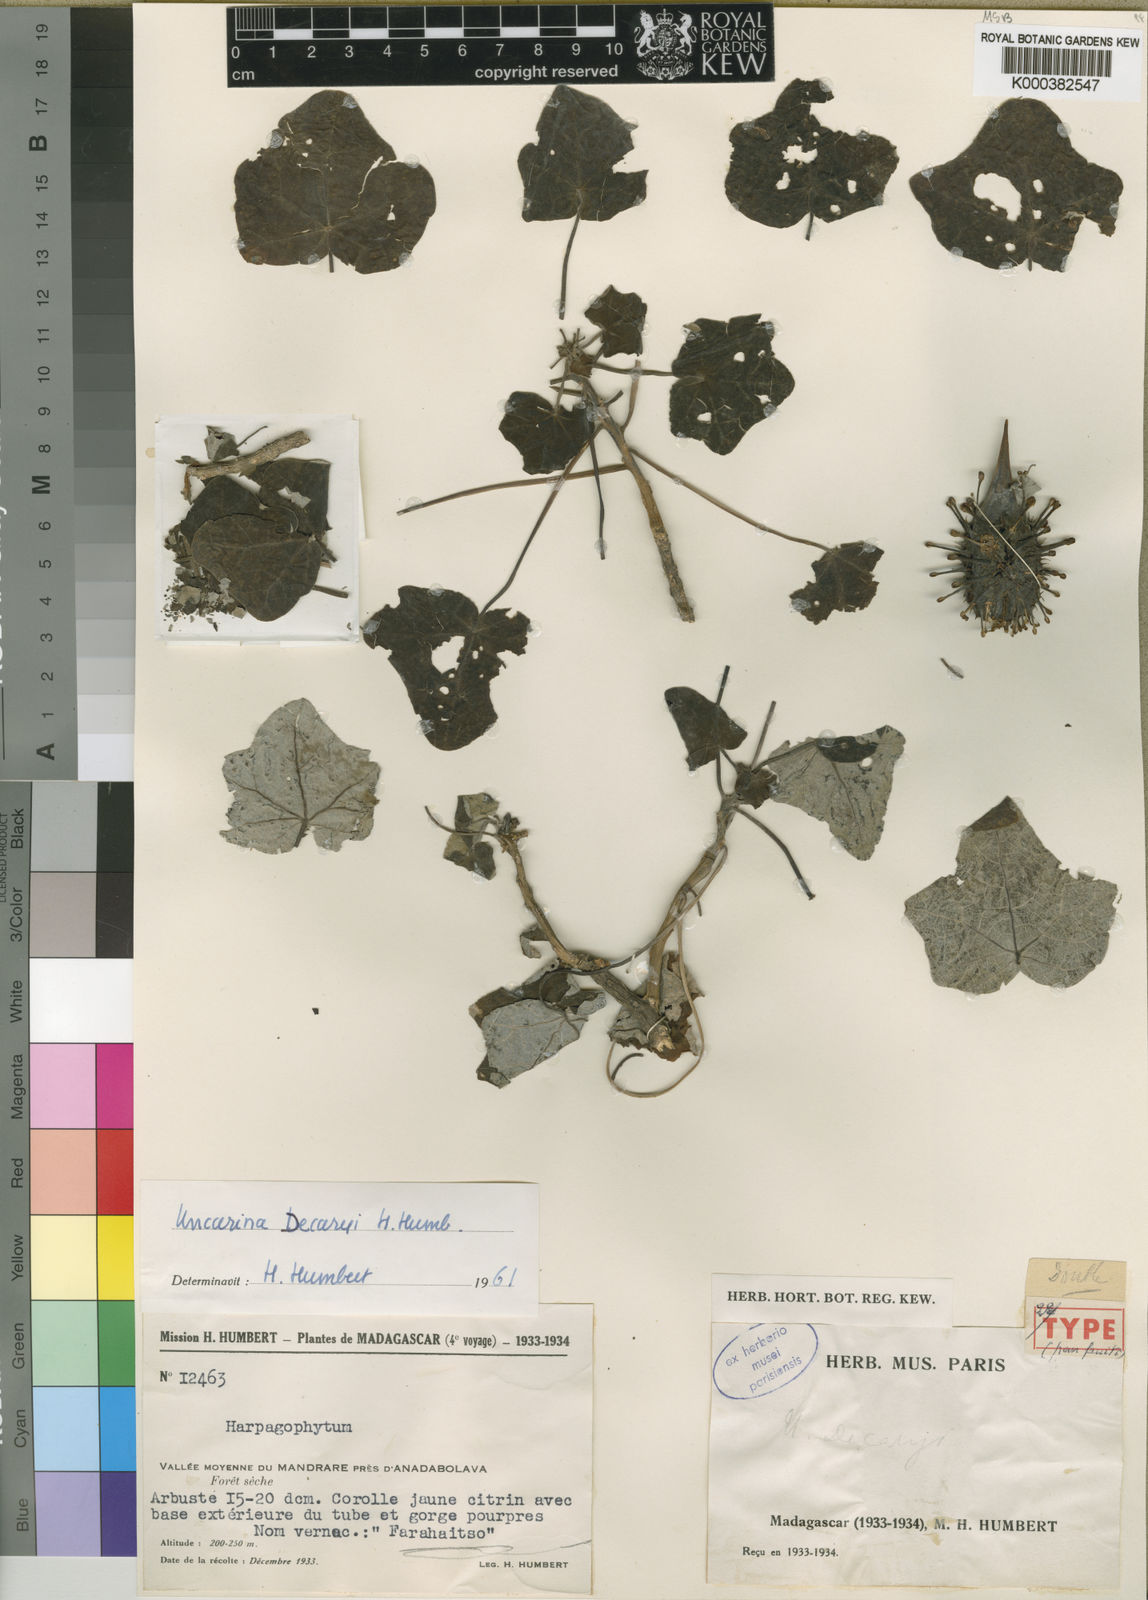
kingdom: Plantae
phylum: Tracheophyta
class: Magnoliopsida
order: Lamiales
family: Pedaliaceae
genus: Uncarina
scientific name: Uncarina decaryi
